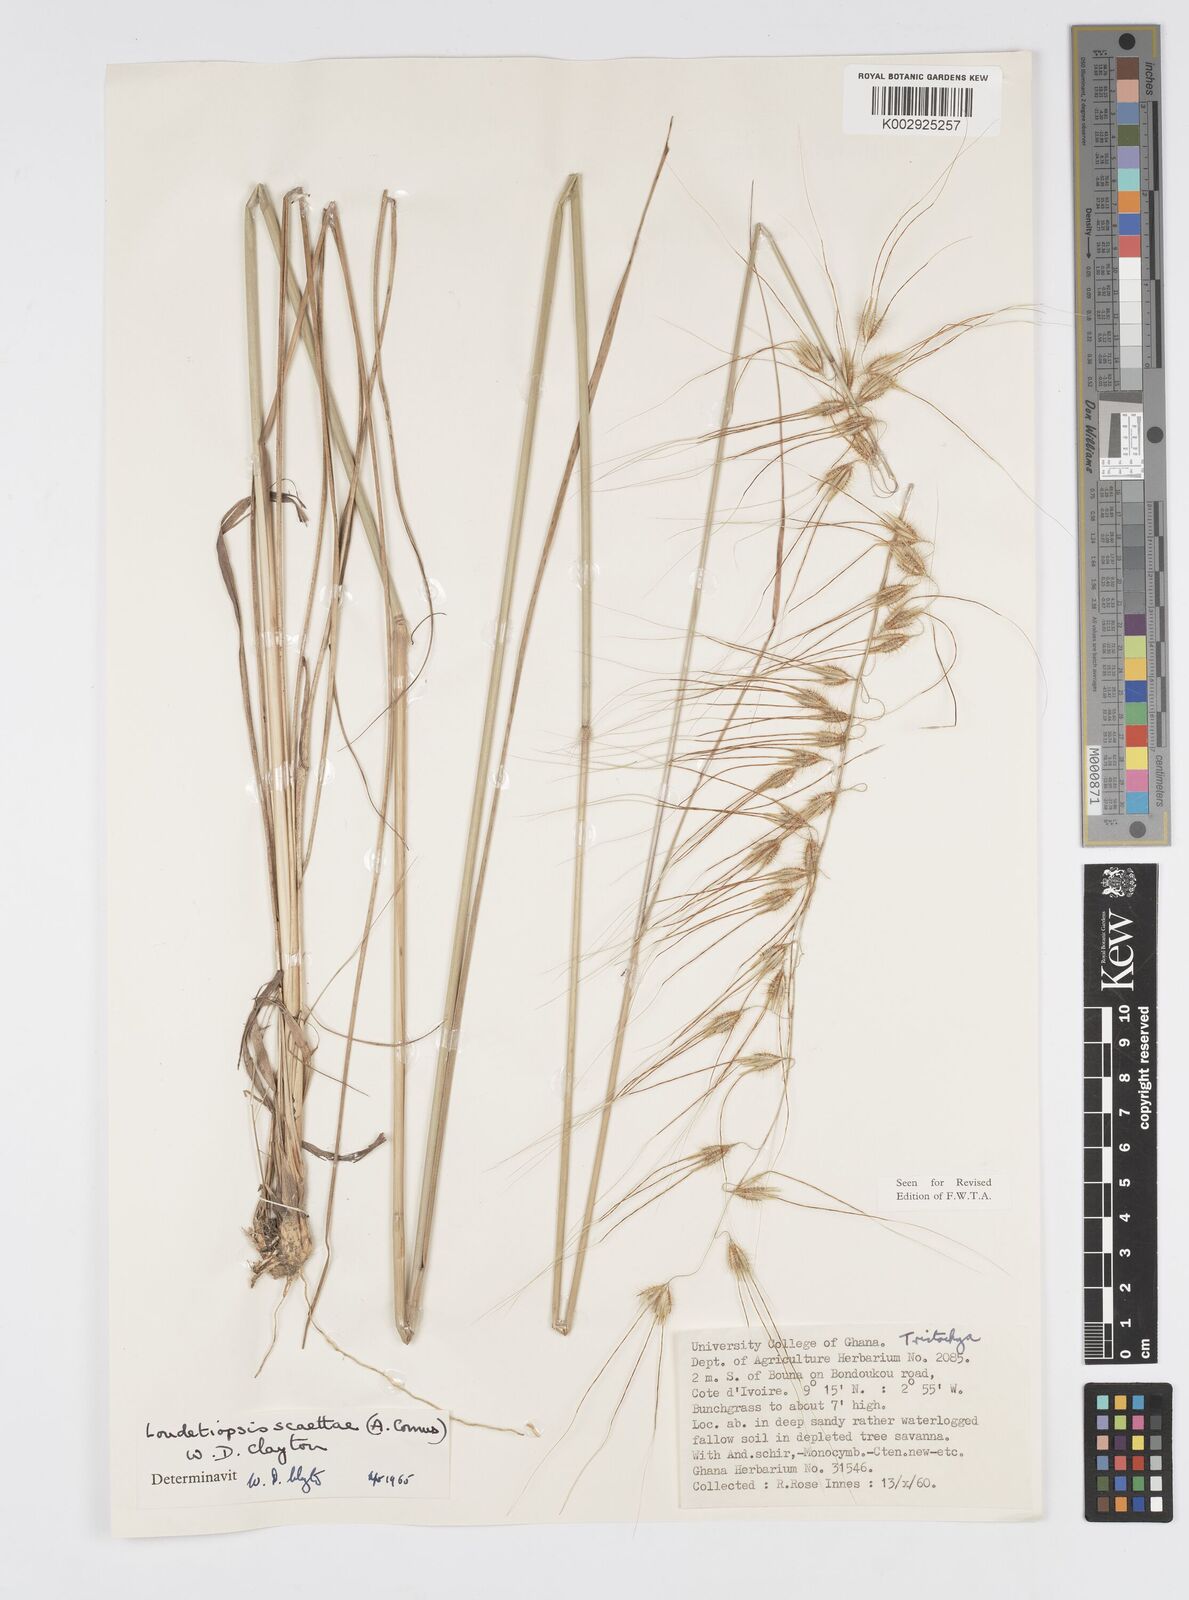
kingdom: Plantae
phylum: Tracheophyta
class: Liliopsida
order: Poales
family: Poaceae
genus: Loudetiopsis
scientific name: Loudetiopsis scaettae
